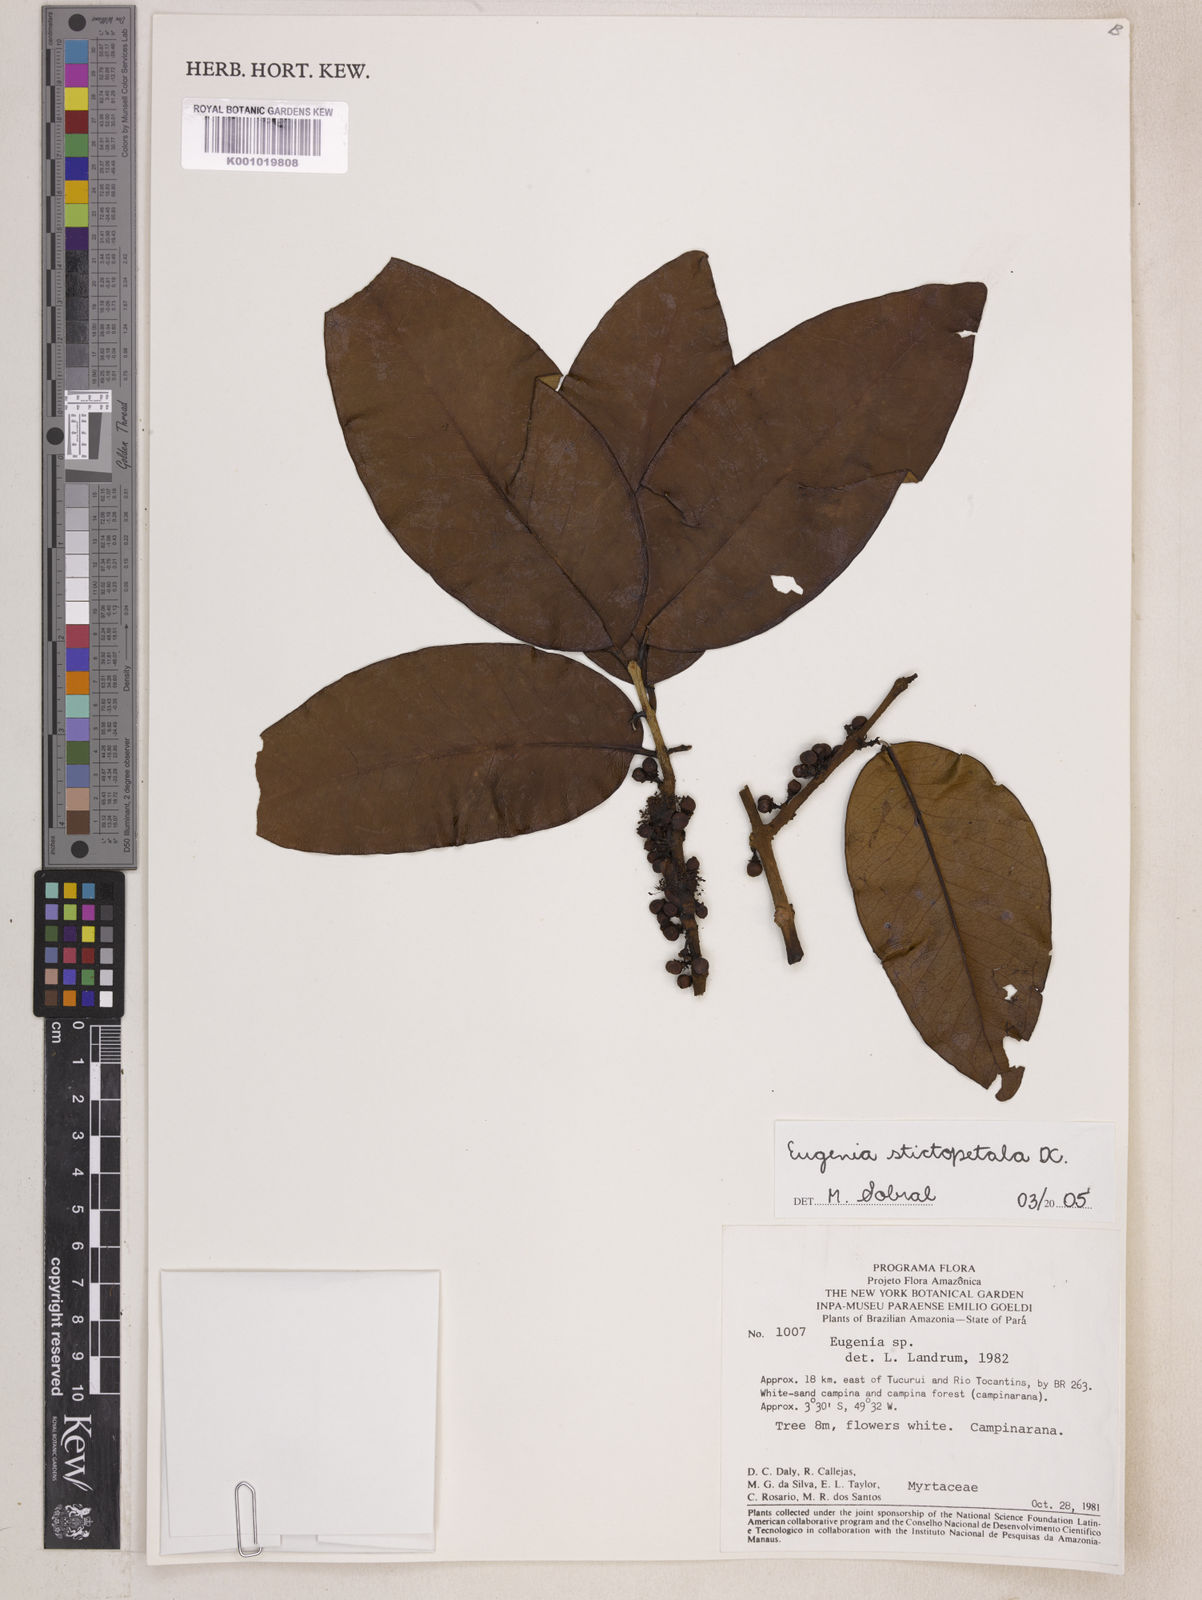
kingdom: Plantae
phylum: Tracheophyta
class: Magnoliopsida
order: Myrtales
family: Myrtaceae
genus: Eugenia
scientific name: Eugenia stictopetala
